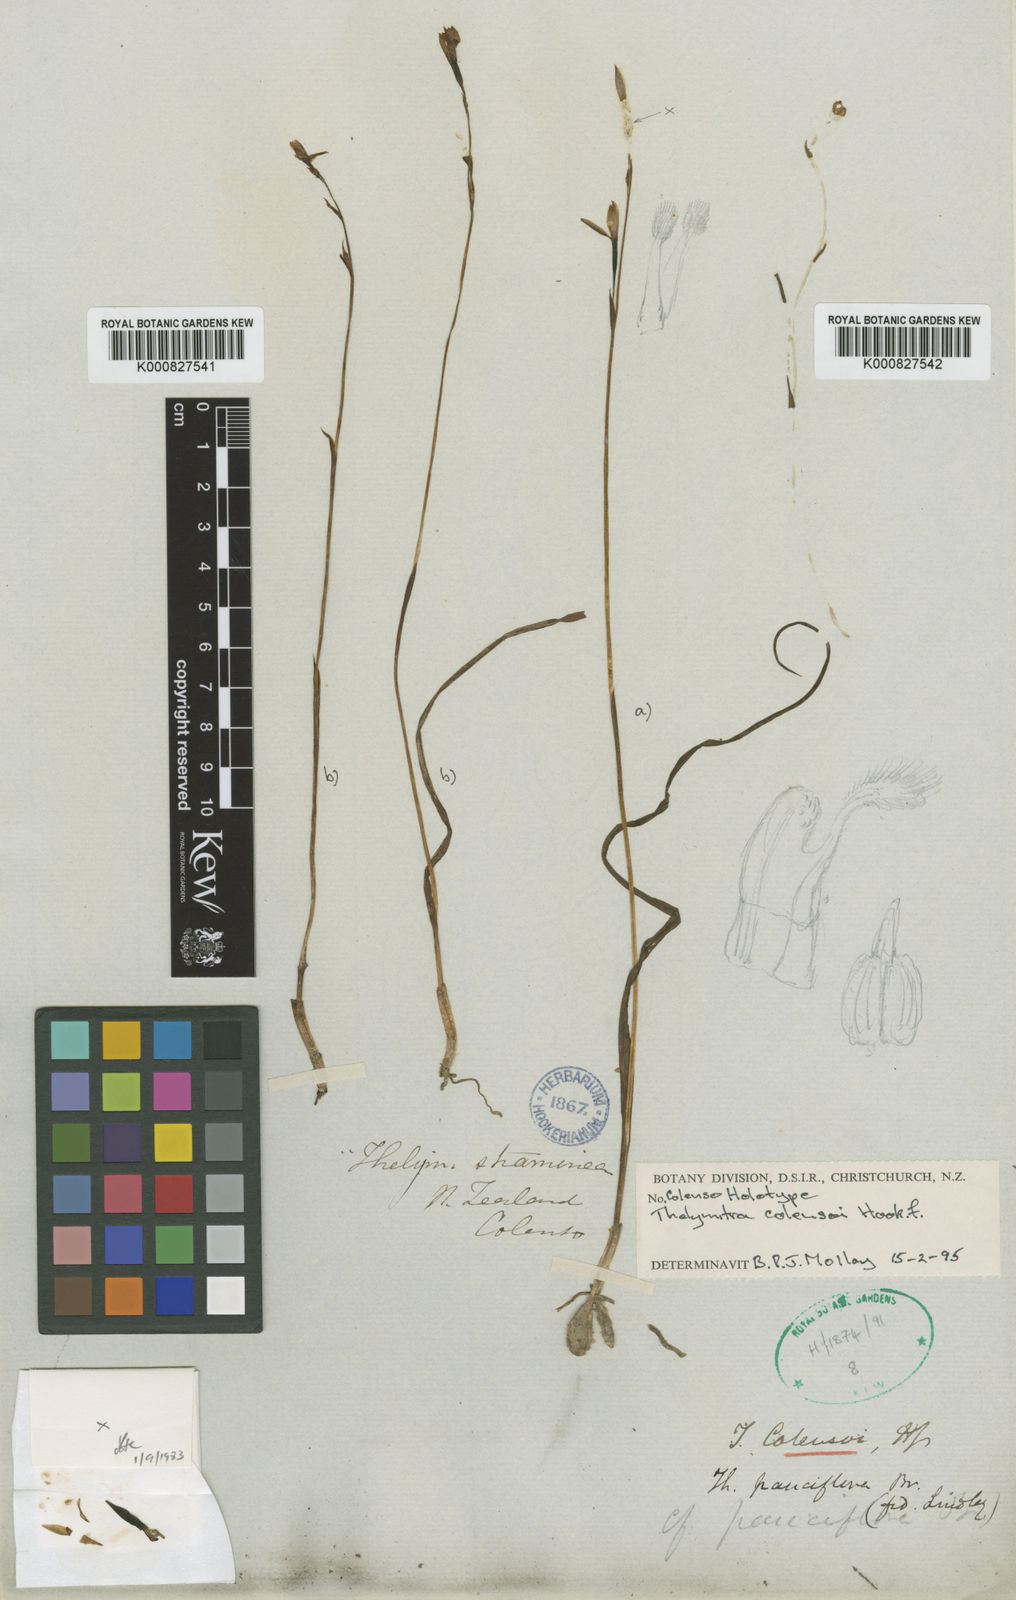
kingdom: Plantae
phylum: Tracheophyta
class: Liliopsida
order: Asparagales
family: Orchidaceae
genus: Thelymitra
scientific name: Thelymitra longifolia
